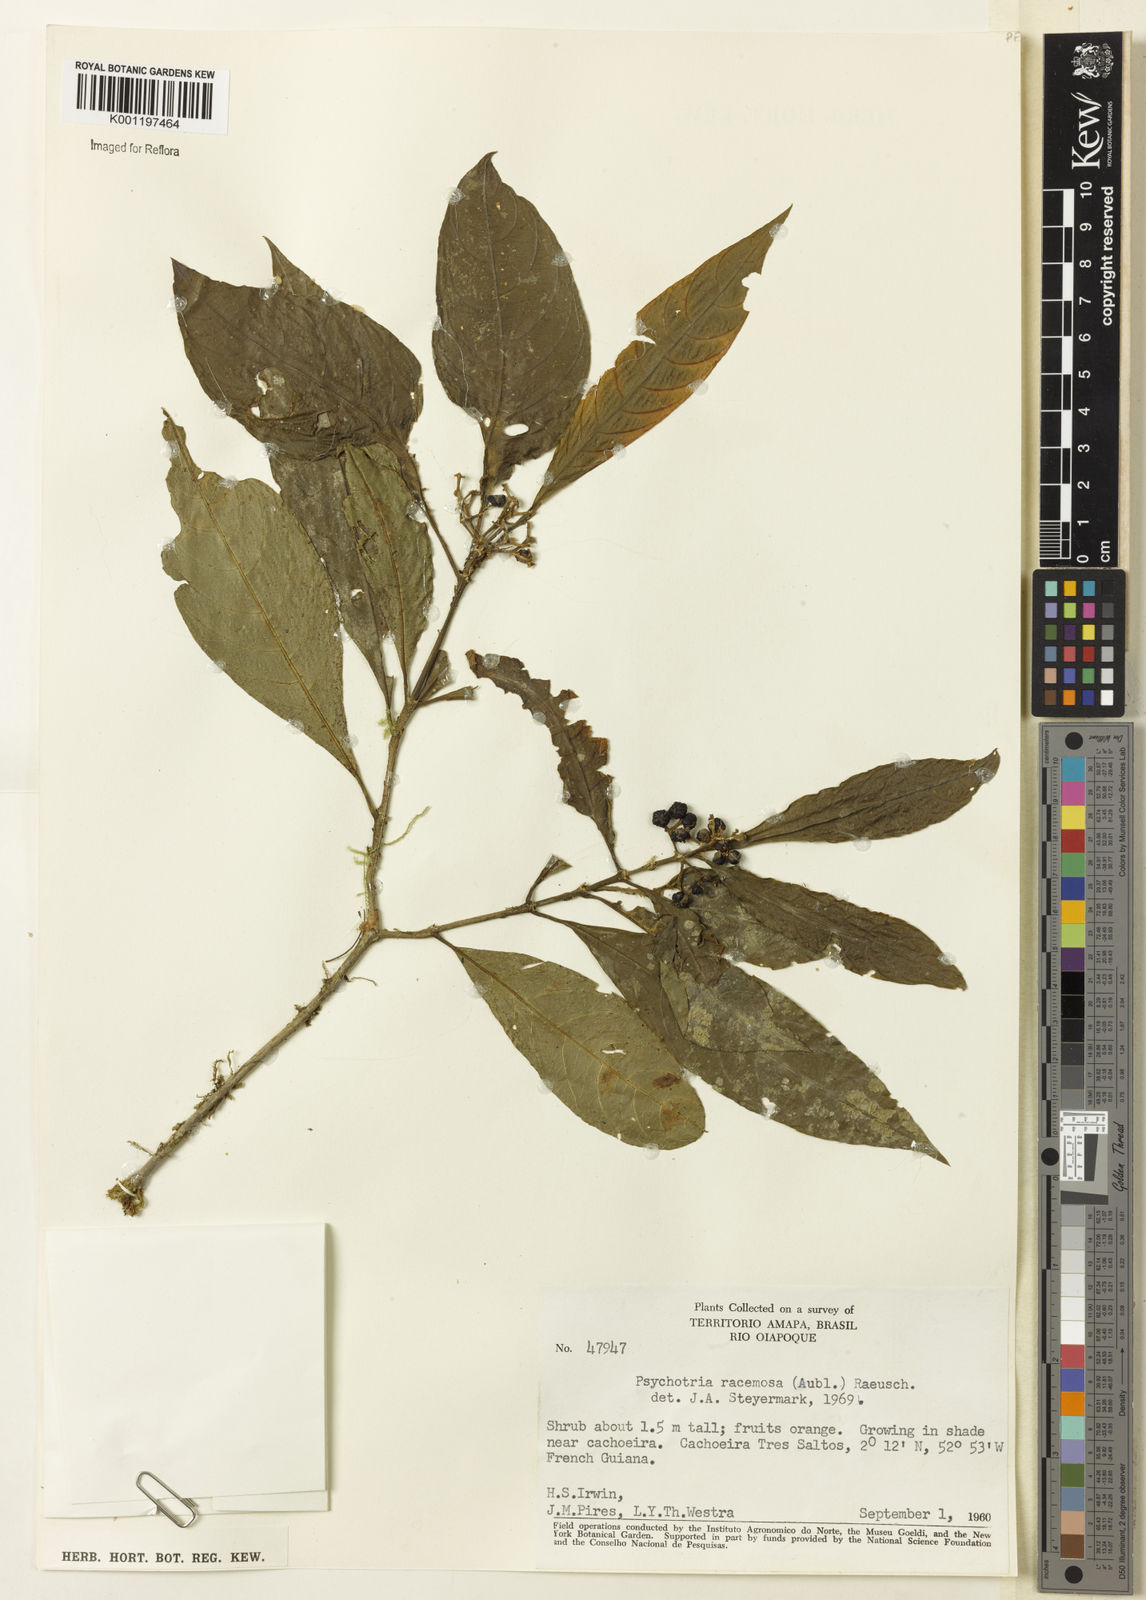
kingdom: Plantae
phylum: Tracheophyta
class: Magnoliopsida
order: Gentianales
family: Rubiaceae
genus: Palicourea
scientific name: Palicourea racemosa
